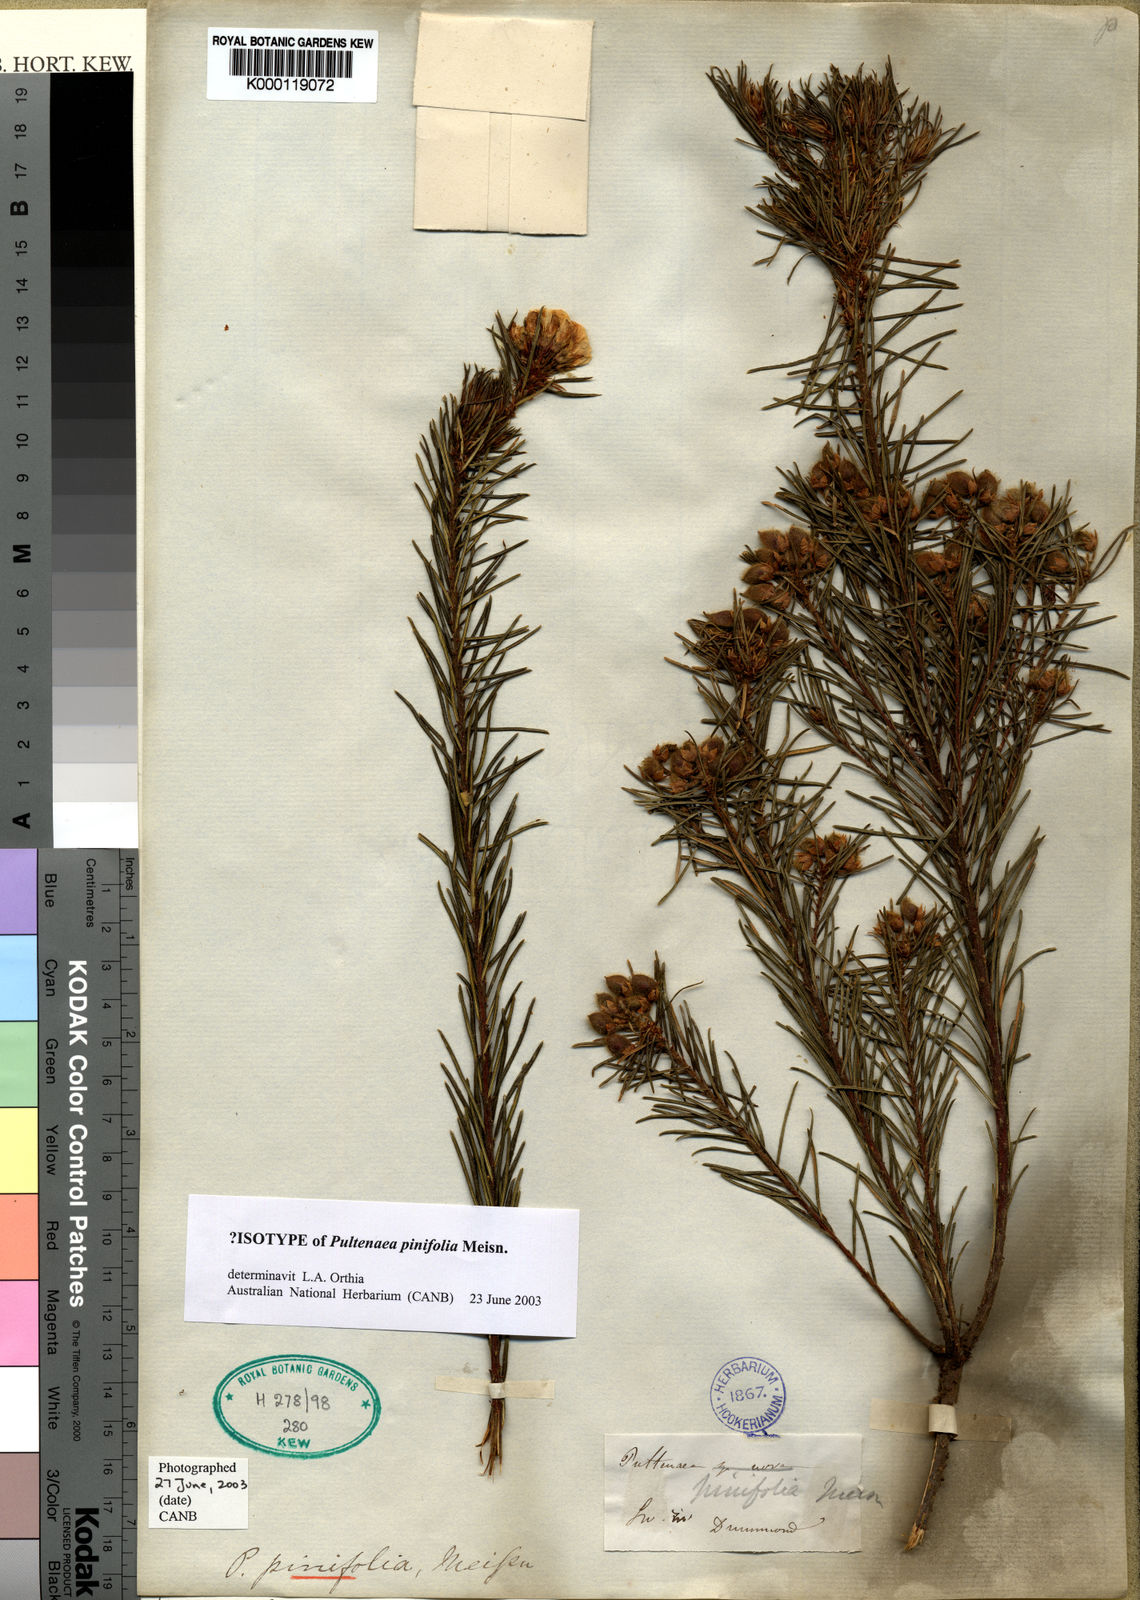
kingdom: Plantae
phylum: Tracheophyta
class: Magnoliopsida
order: Fabales
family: Fabaceae
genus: Pultenaea
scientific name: Pultenaea pinifolia
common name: Tree pultenaea
